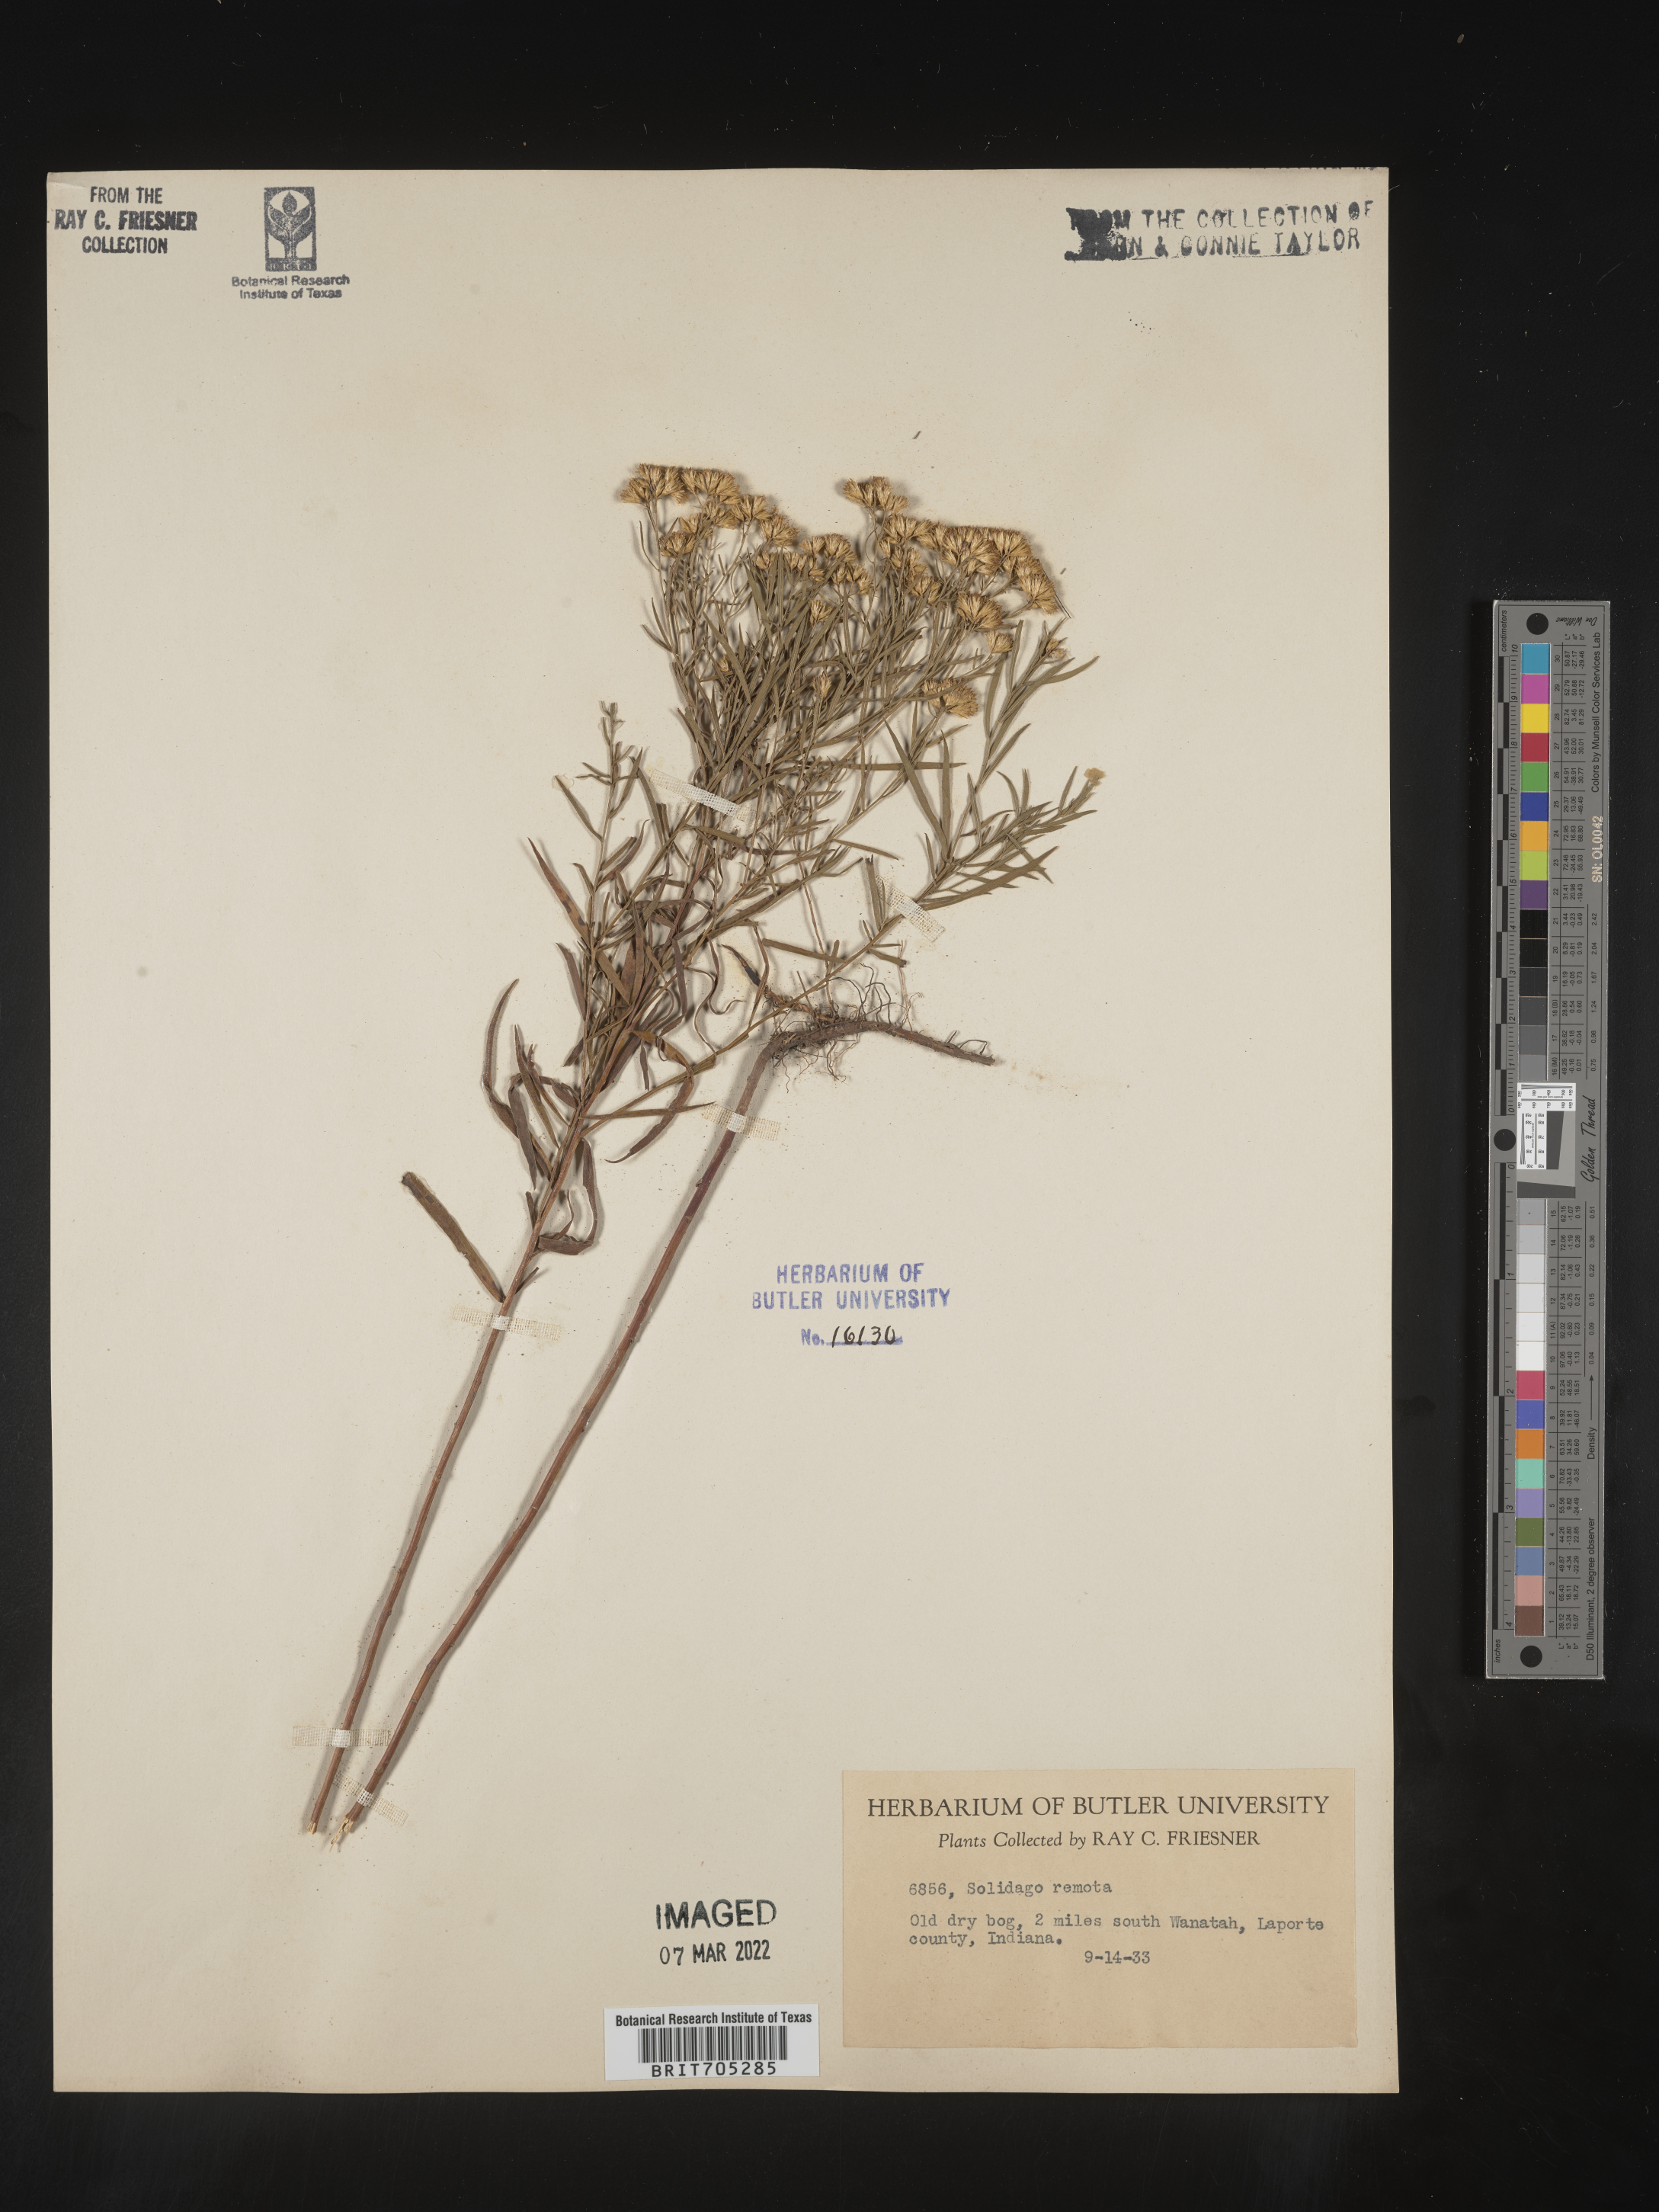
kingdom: Plantae
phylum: Tracheophyta
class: Magnoliopsida
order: Asterales
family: Asteraceae
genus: Euthamia
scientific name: Euthamia gymnospermoides
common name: Great plains goldentop
